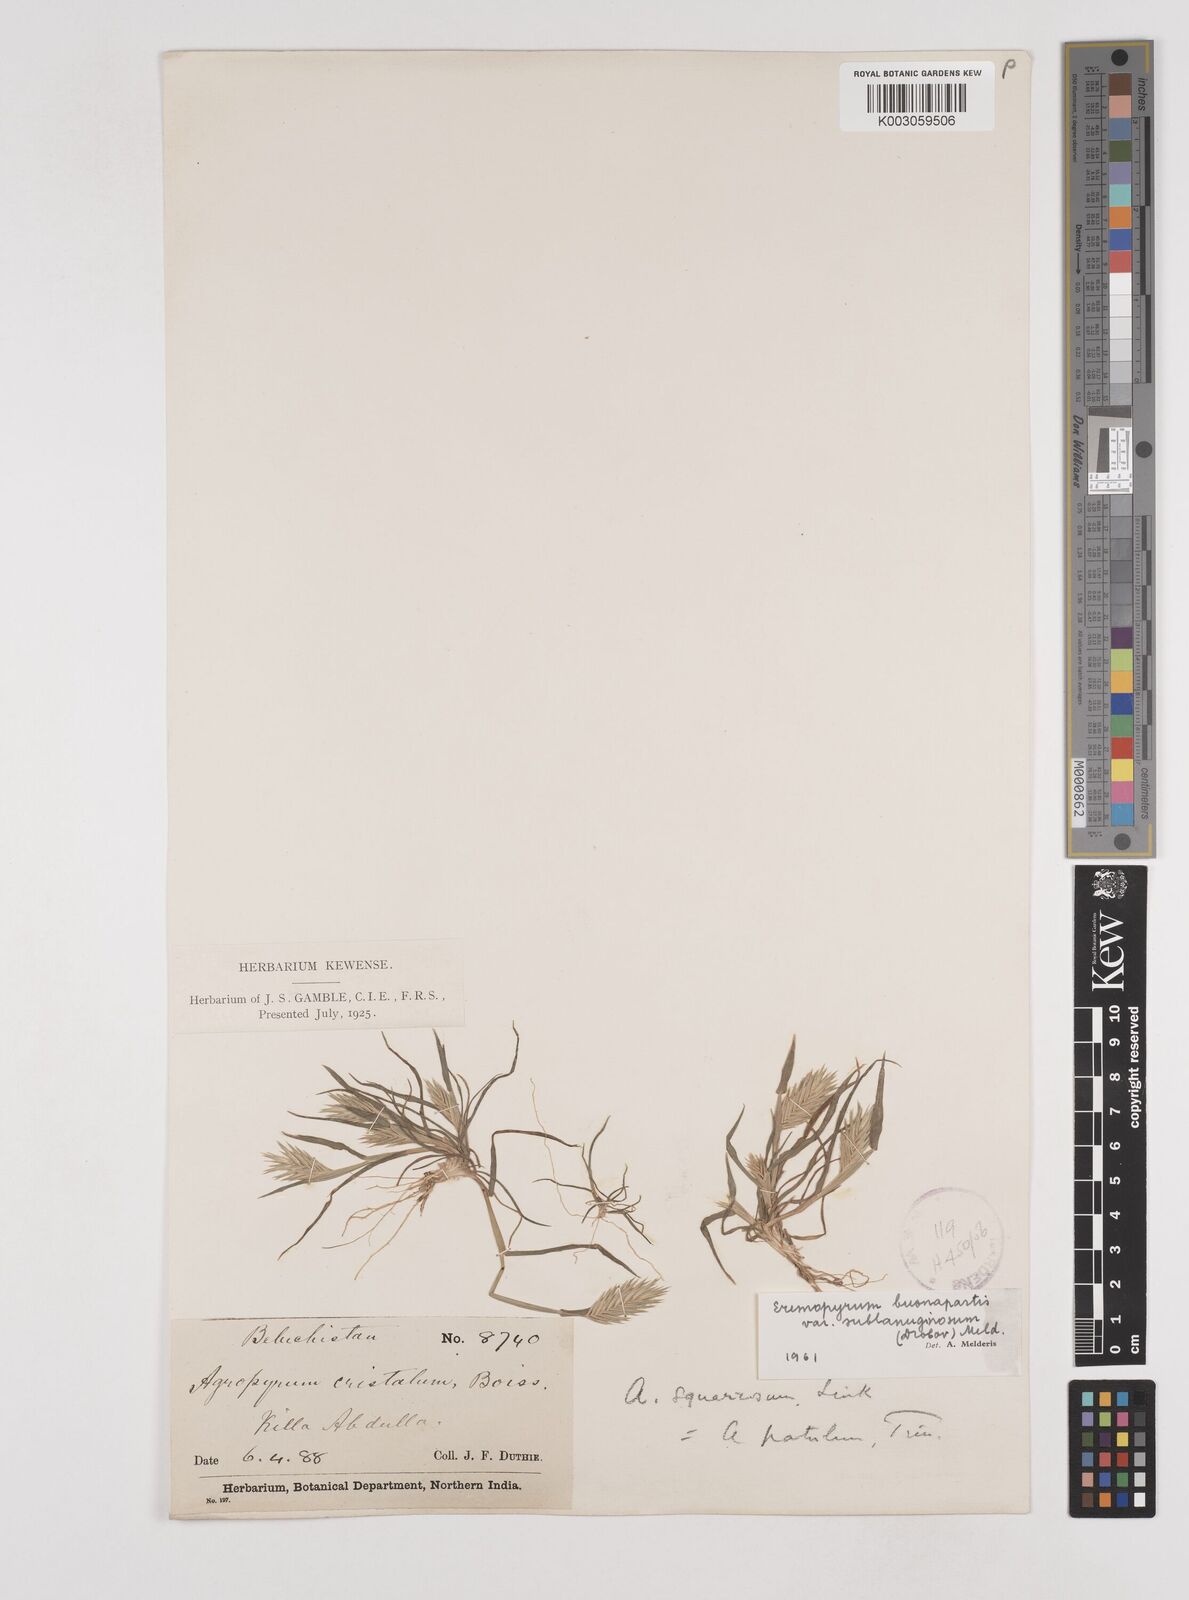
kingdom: Plantae
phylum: Tracheophyta
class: Liliopsida
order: Poales
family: Poaceae
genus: Eremopyrum
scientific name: Eremopyrum bonaepartis
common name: Tapertip false wheatgrass
